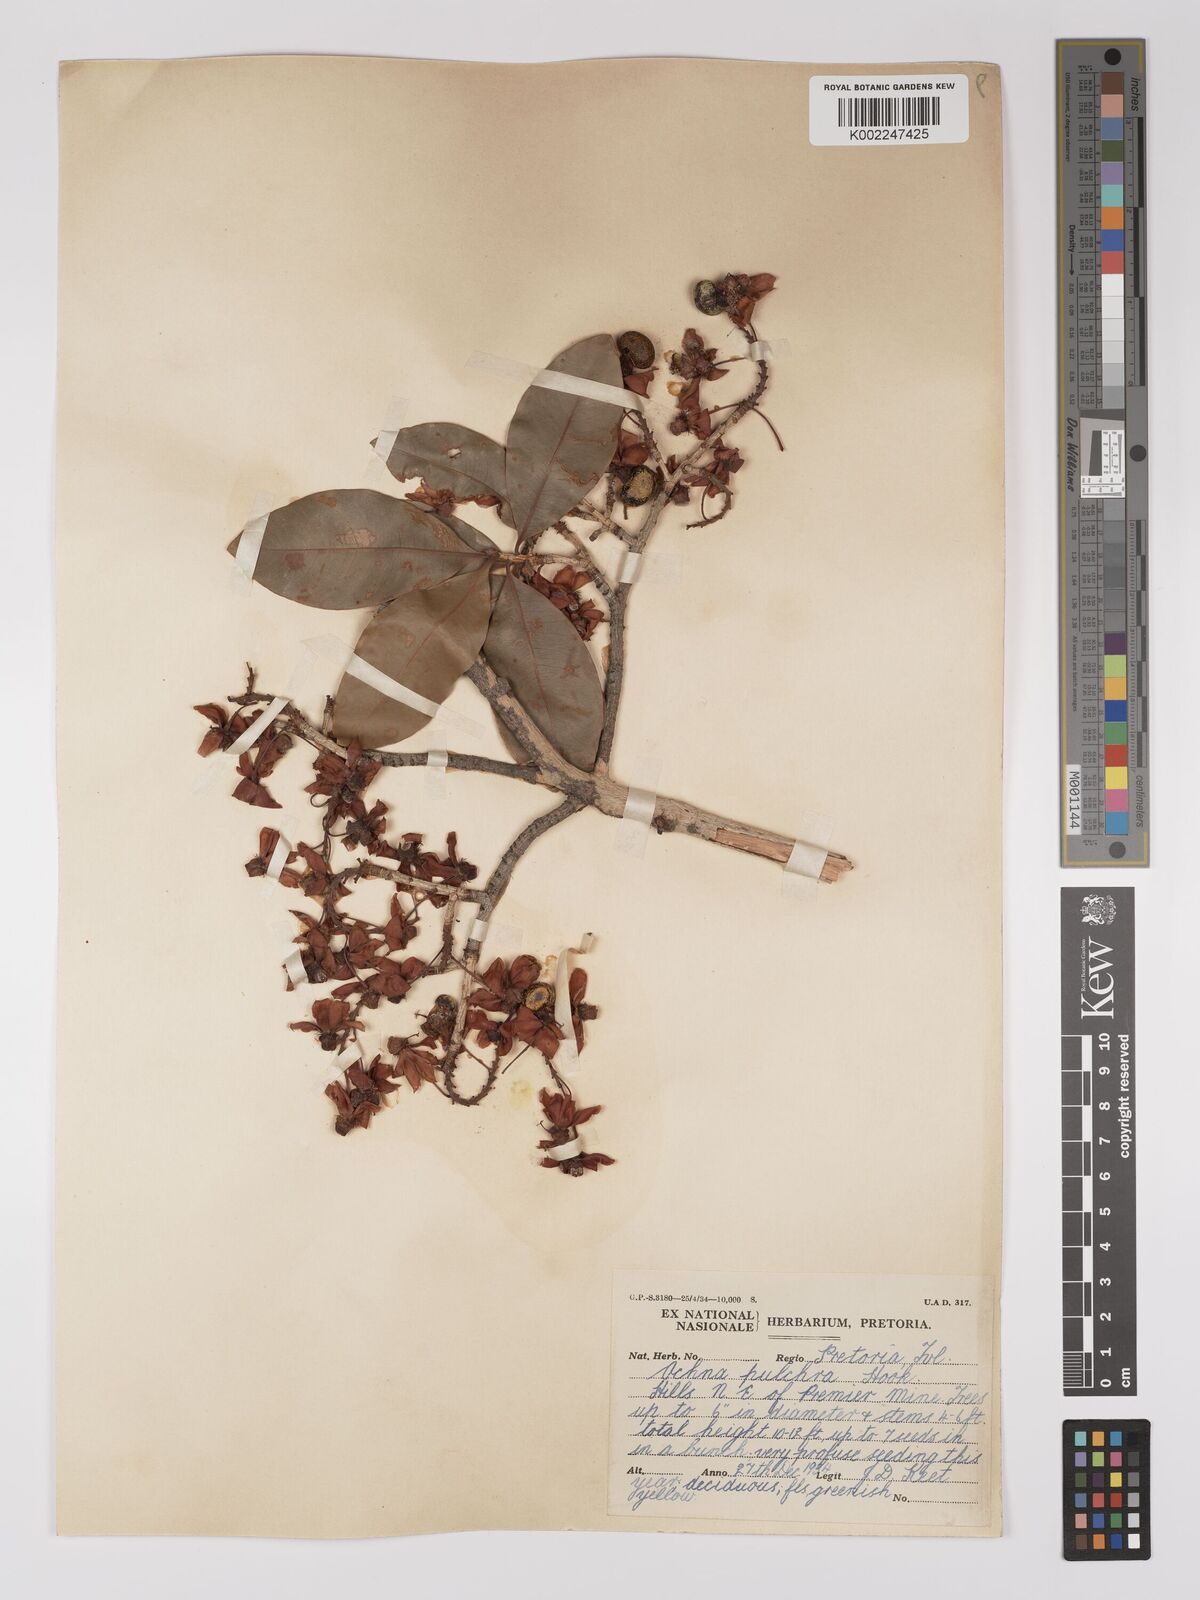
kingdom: Plantae
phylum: Tracheophyta
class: Magnoliopsida
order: Malpighiales
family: Ochnaceae
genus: Ochna
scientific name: Ochna pulchra
